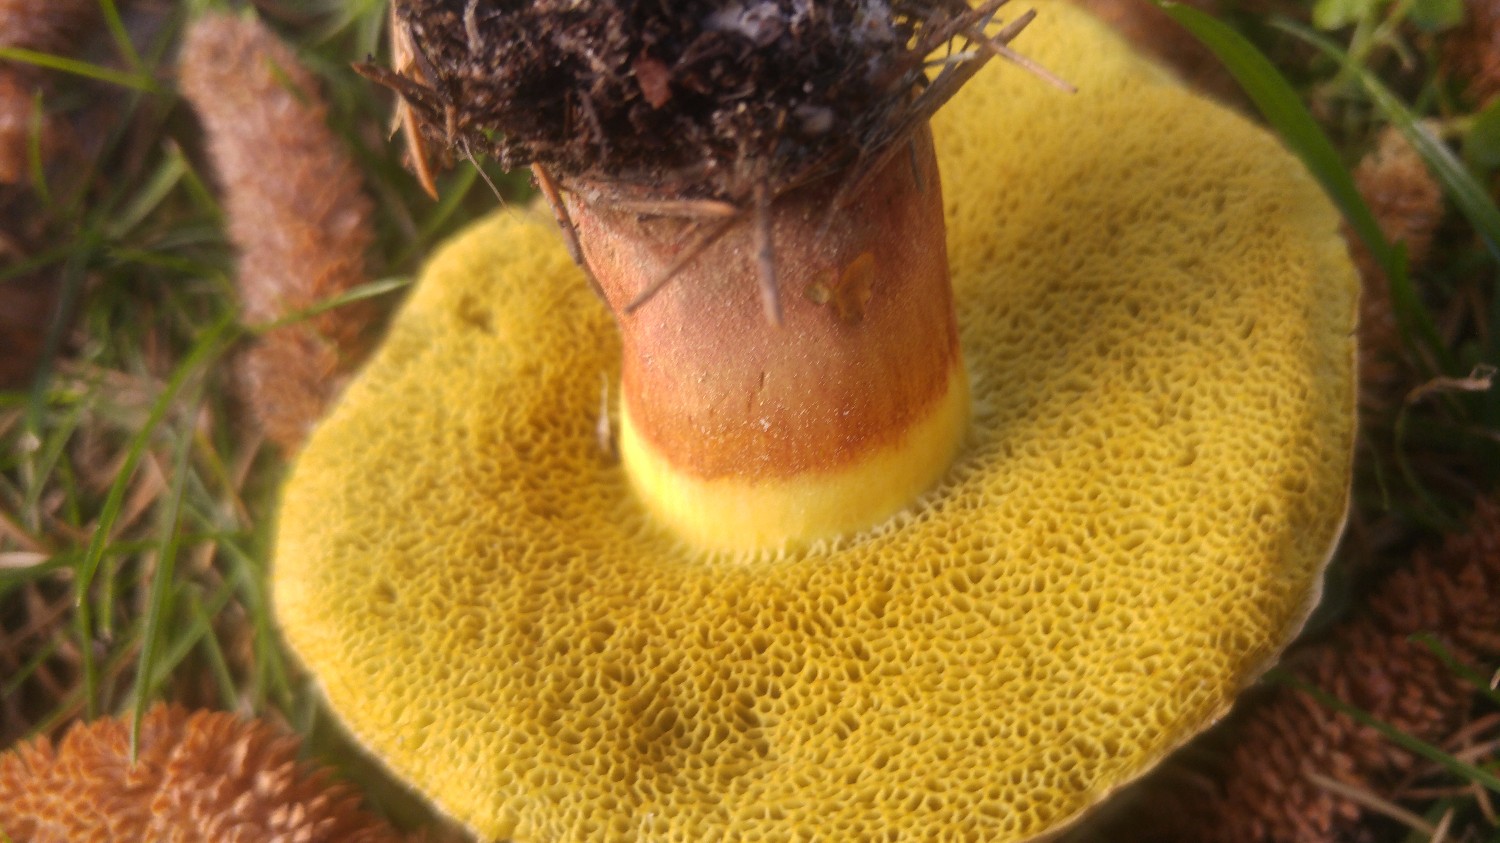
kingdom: Fungi
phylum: Basidiomycota
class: Agaricomycetes
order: Boletales
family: Boletaceae
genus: Xerocomellus
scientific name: Xerocomellus chrysenteron
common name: rødsprukken rørhat
